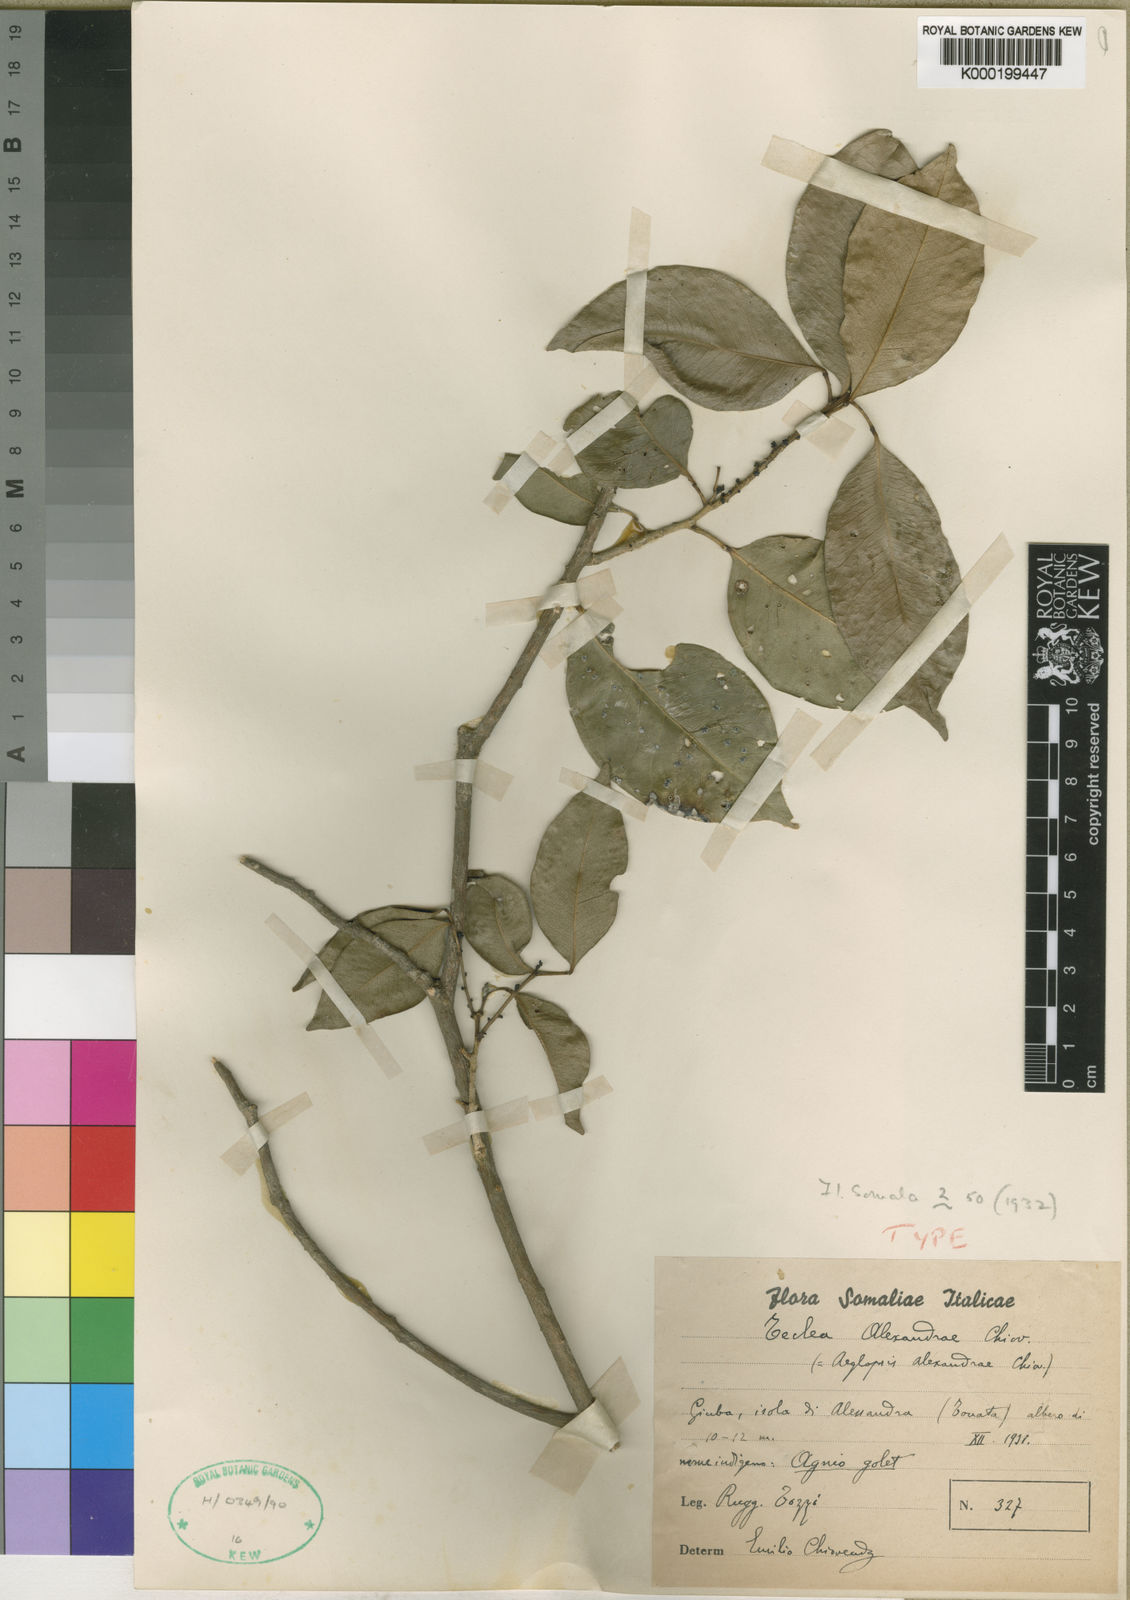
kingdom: Plantae
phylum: Tracheophyta
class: Magnoliopsida
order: Sapindales
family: Rutaceae
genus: Vepris
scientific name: Vepris eugeniifolia
